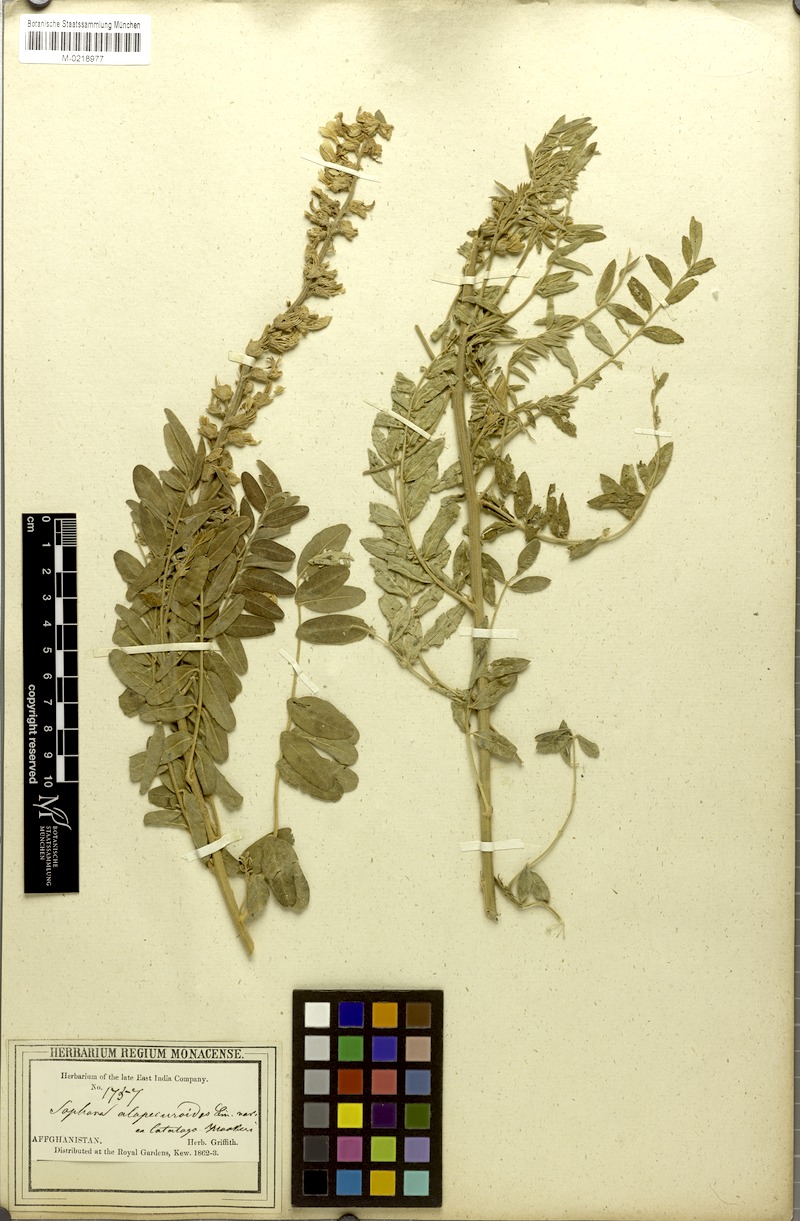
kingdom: Plantae
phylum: Tracheophyta
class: Magnoliopsida
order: Fabales
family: Fabaceae
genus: Sophora
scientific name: Sophora alopecuroides
